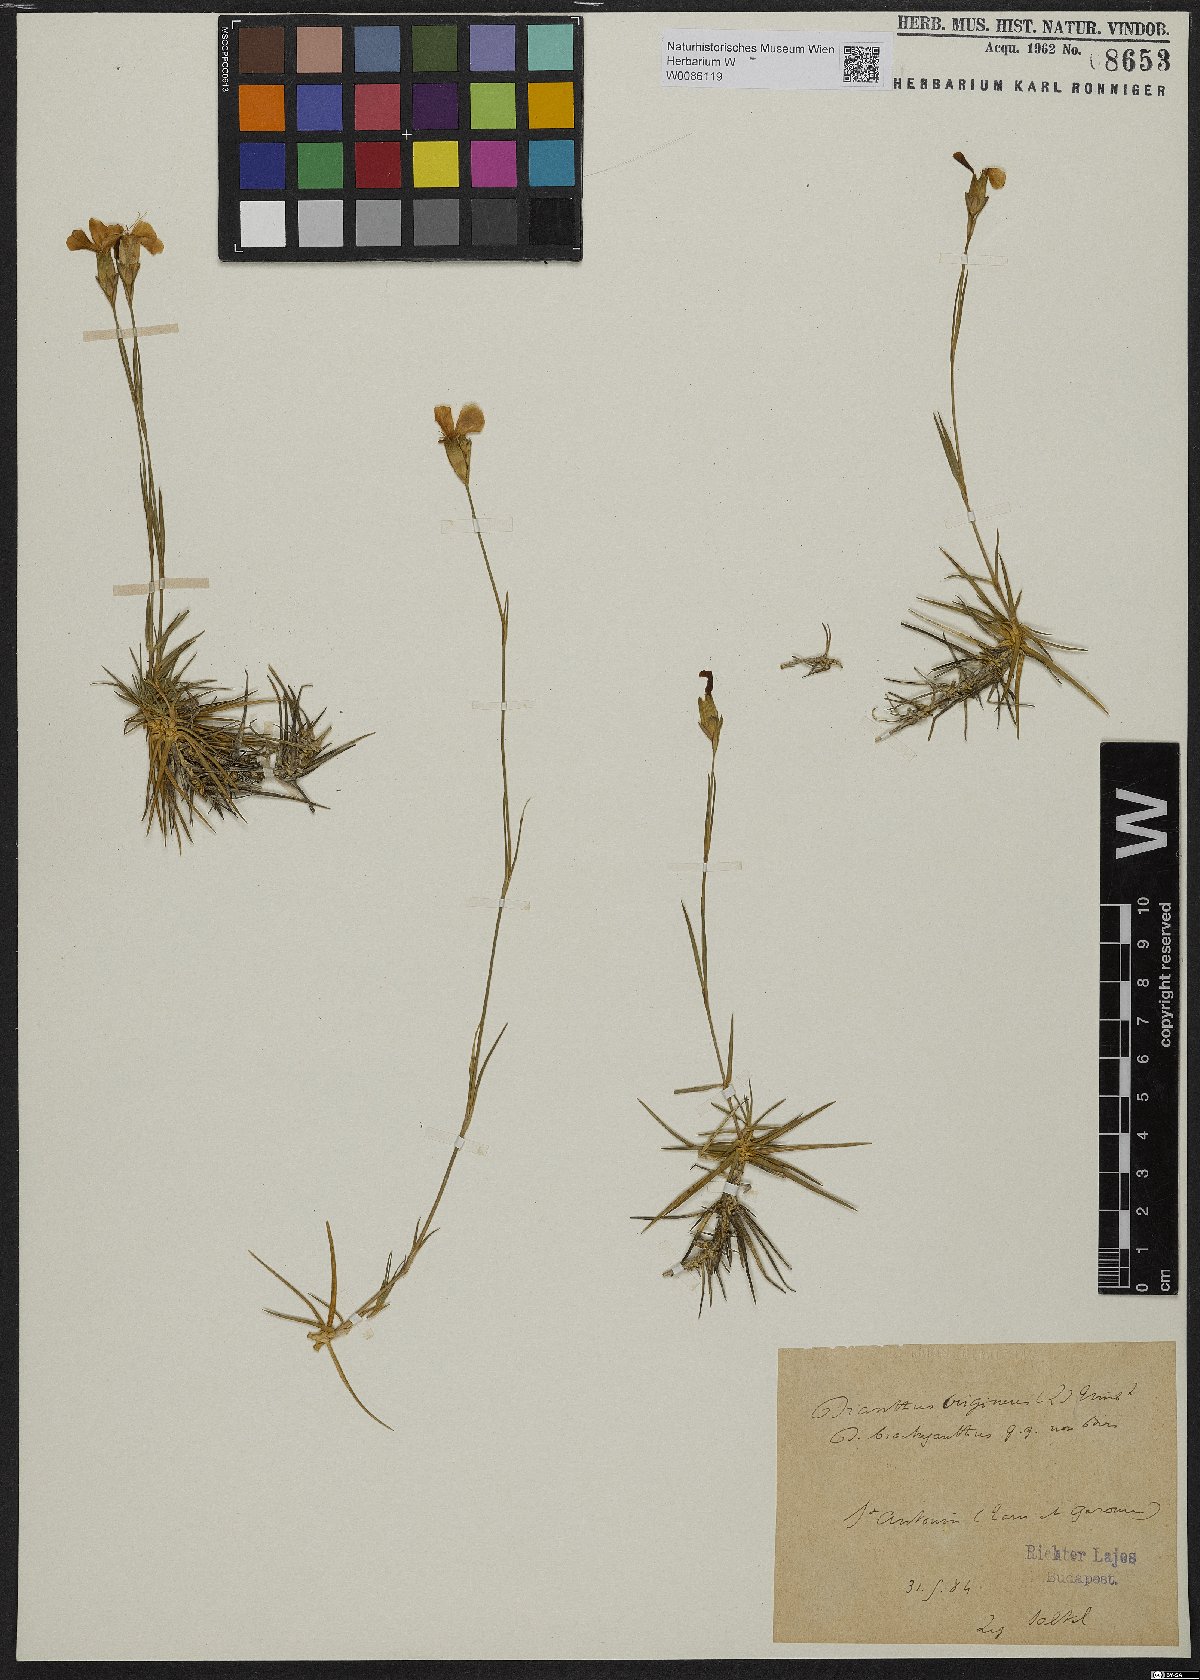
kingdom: Plantae
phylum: Tracheophyta
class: Magnoliopsida
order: Caryophyllales
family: Caryophyllaceae
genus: Dianthus
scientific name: Dianthus subacaulis
